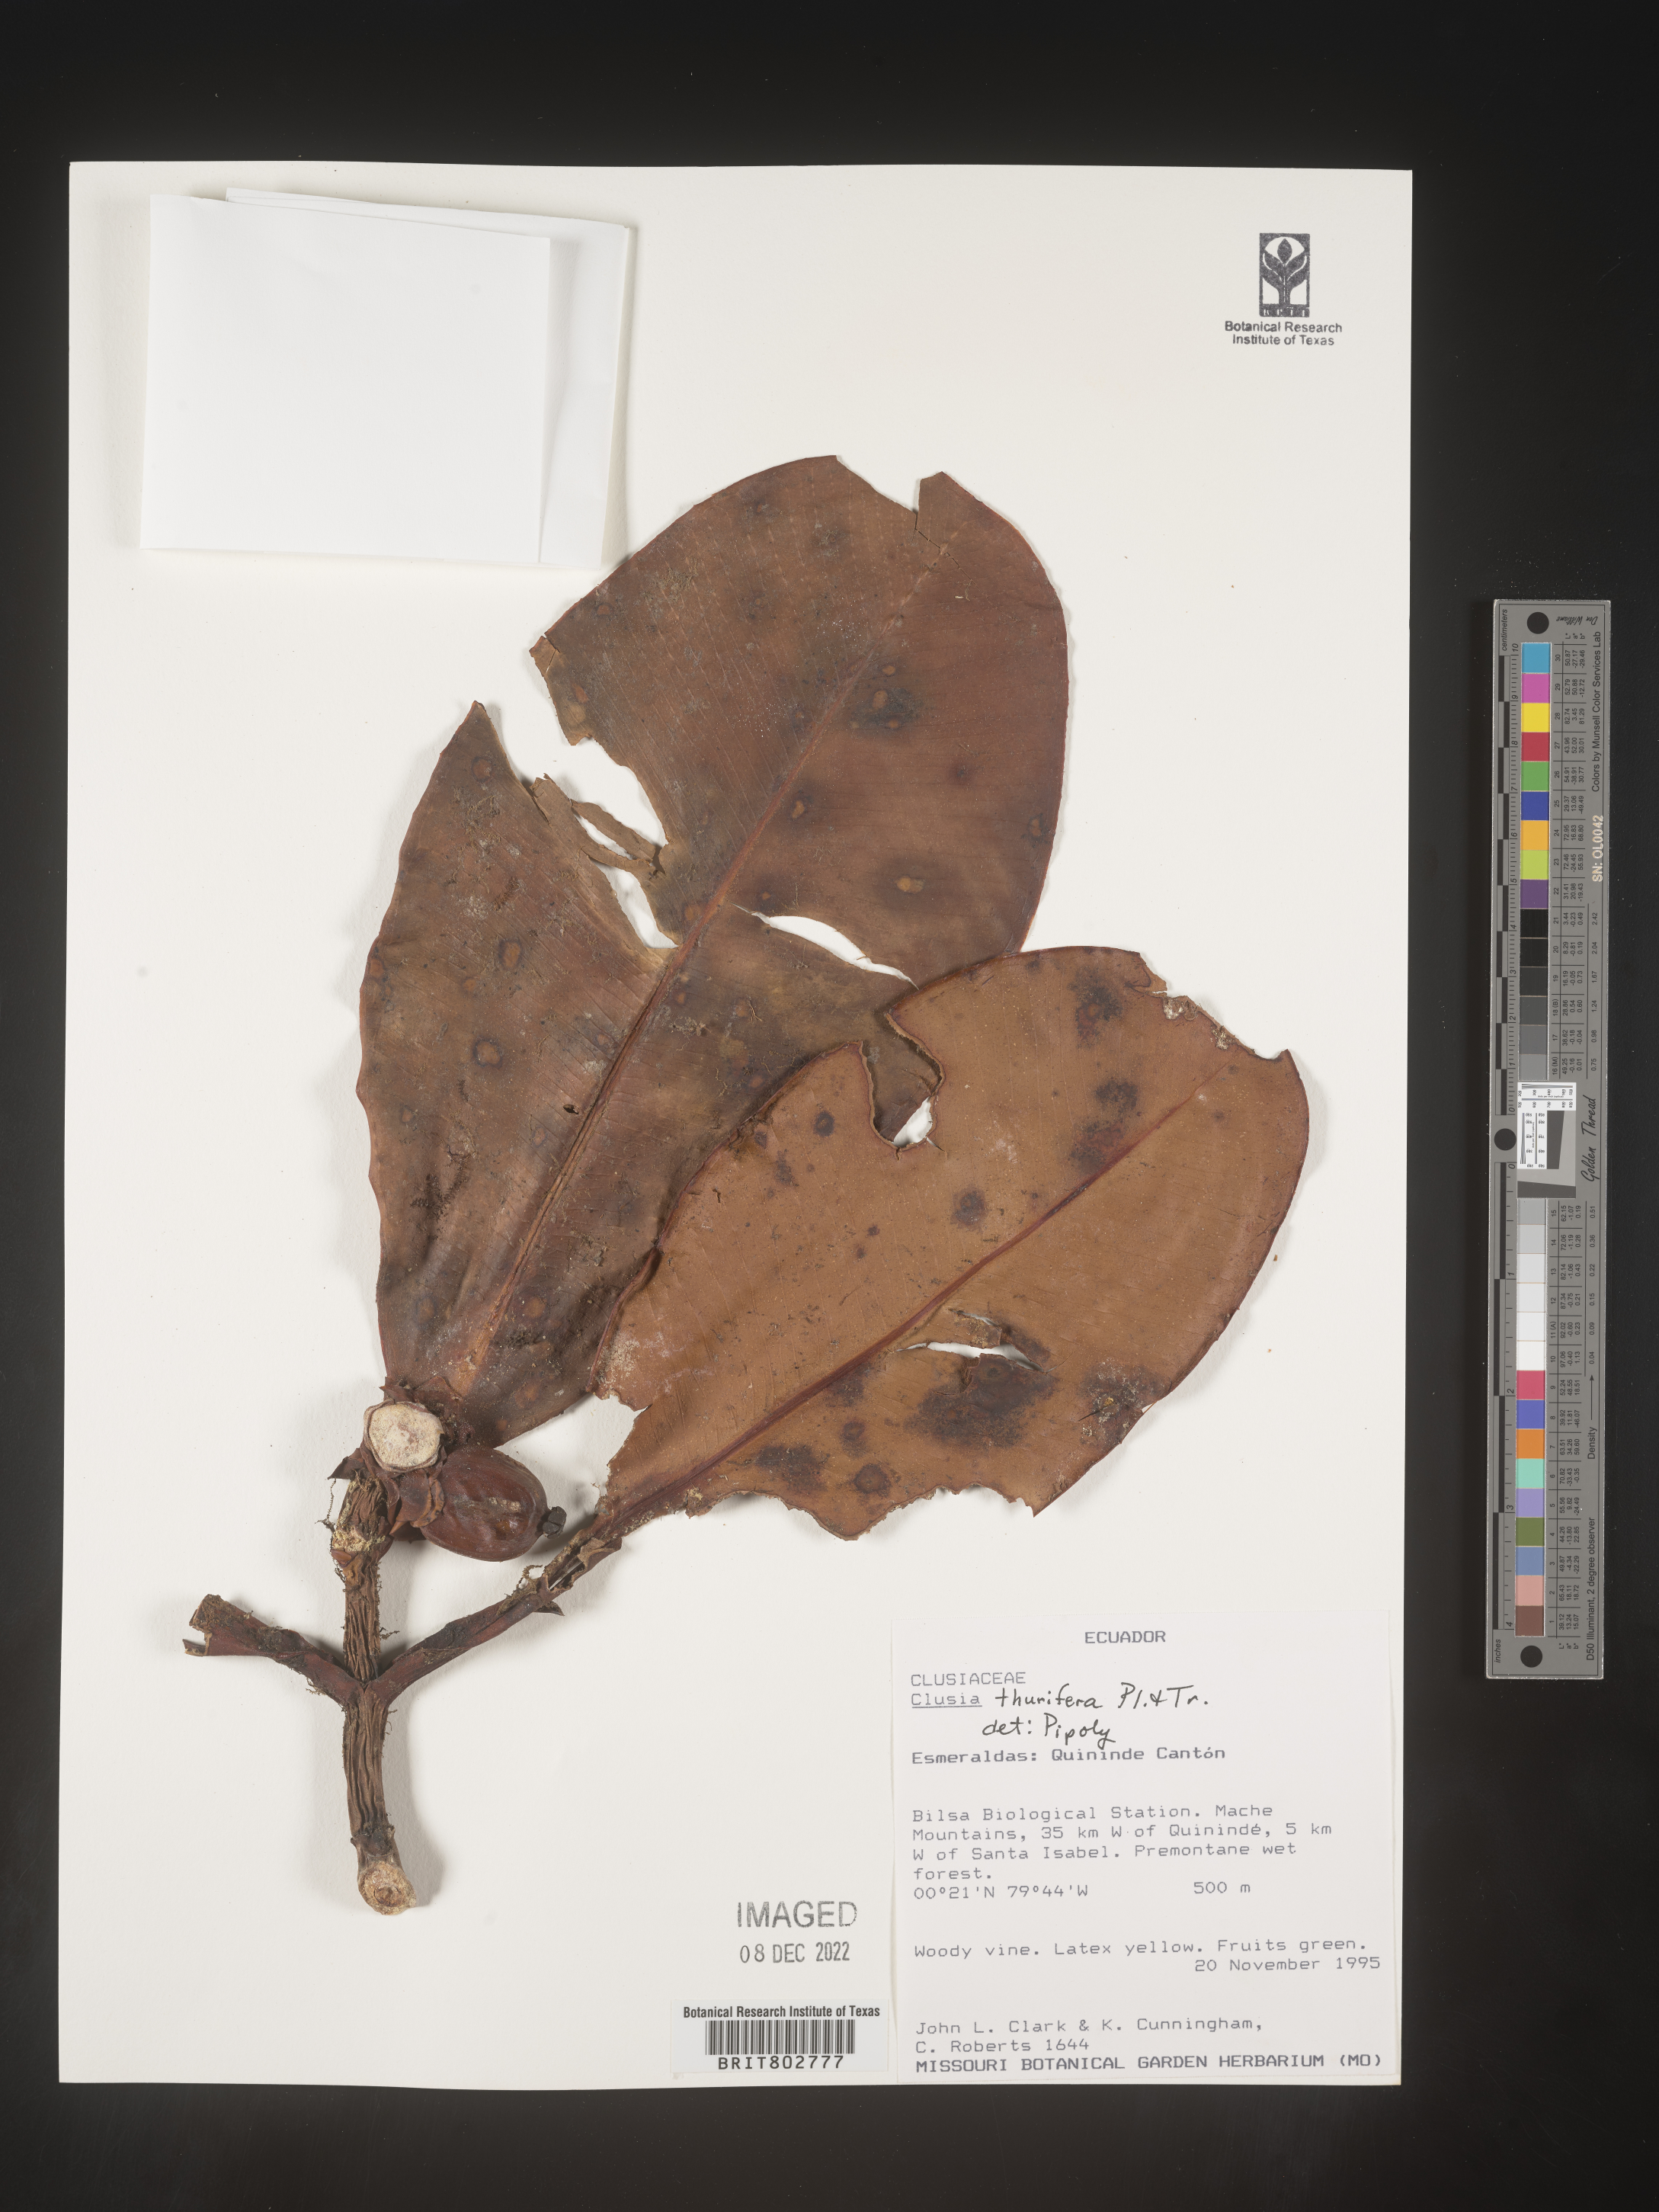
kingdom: Plantae
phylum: Tracheophyta
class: Magnoliopsida
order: Malpighiales
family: Clusiaceae
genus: Clusia
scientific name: Clusia thurifera
